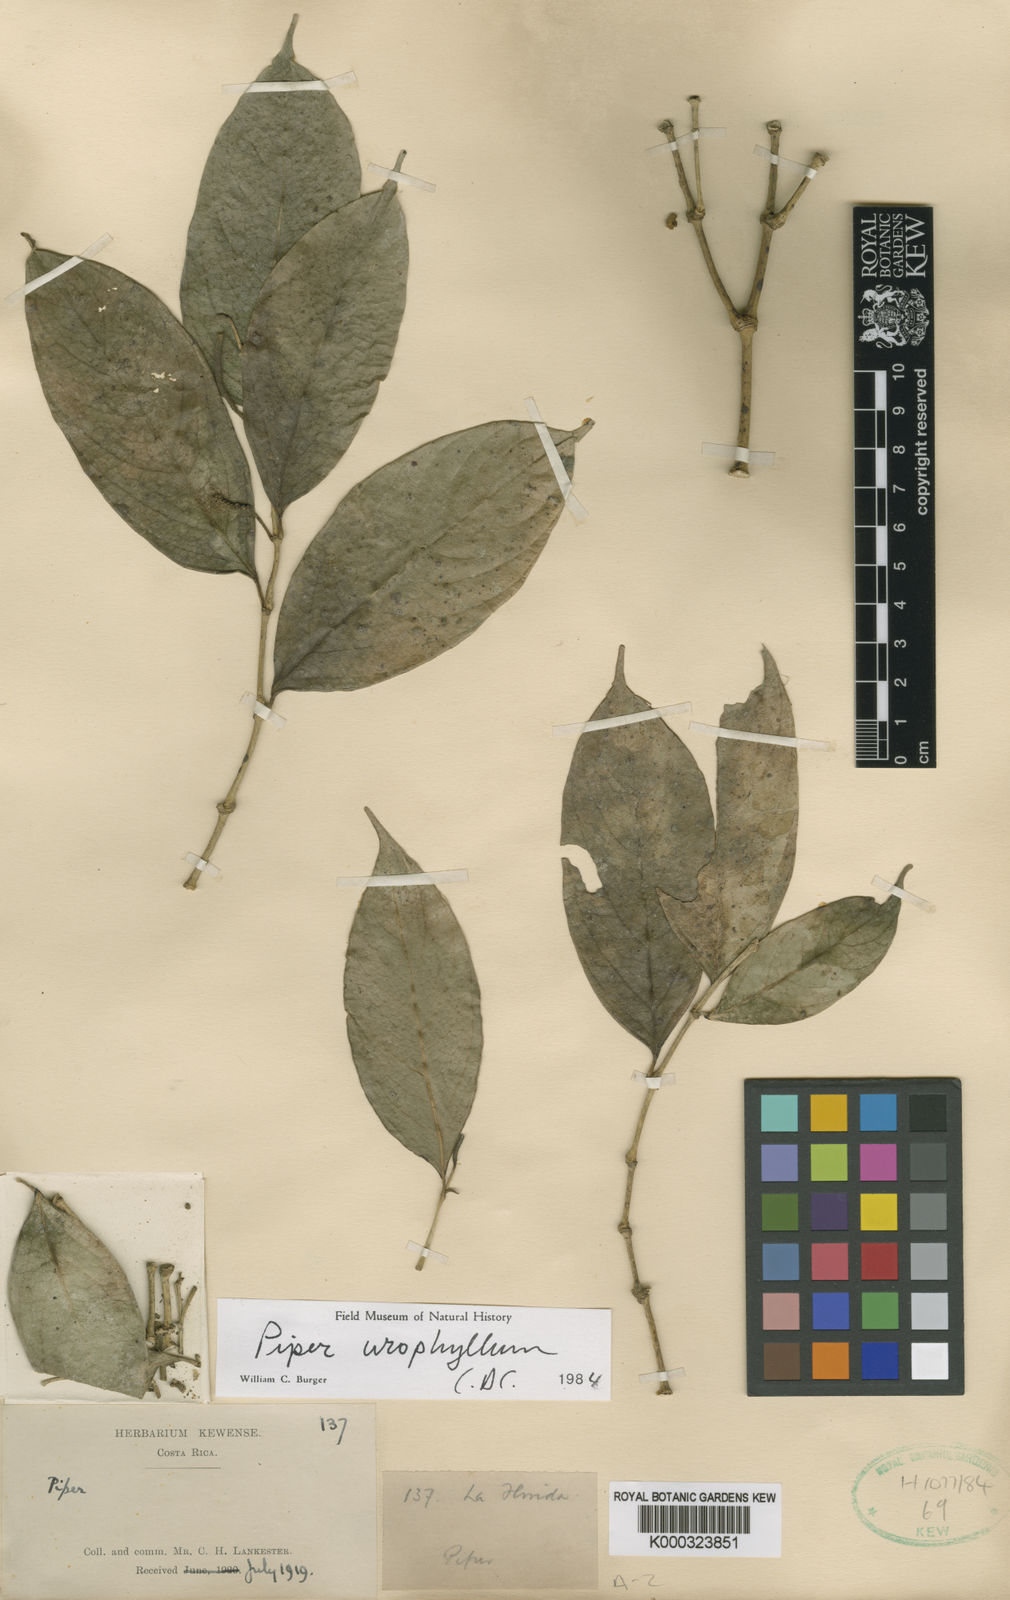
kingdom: Plantae
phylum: Tracheophyta
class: Magnoliopsida
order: Piperales
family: Piperaceae
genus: Piper
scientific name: Piper urophyllum
